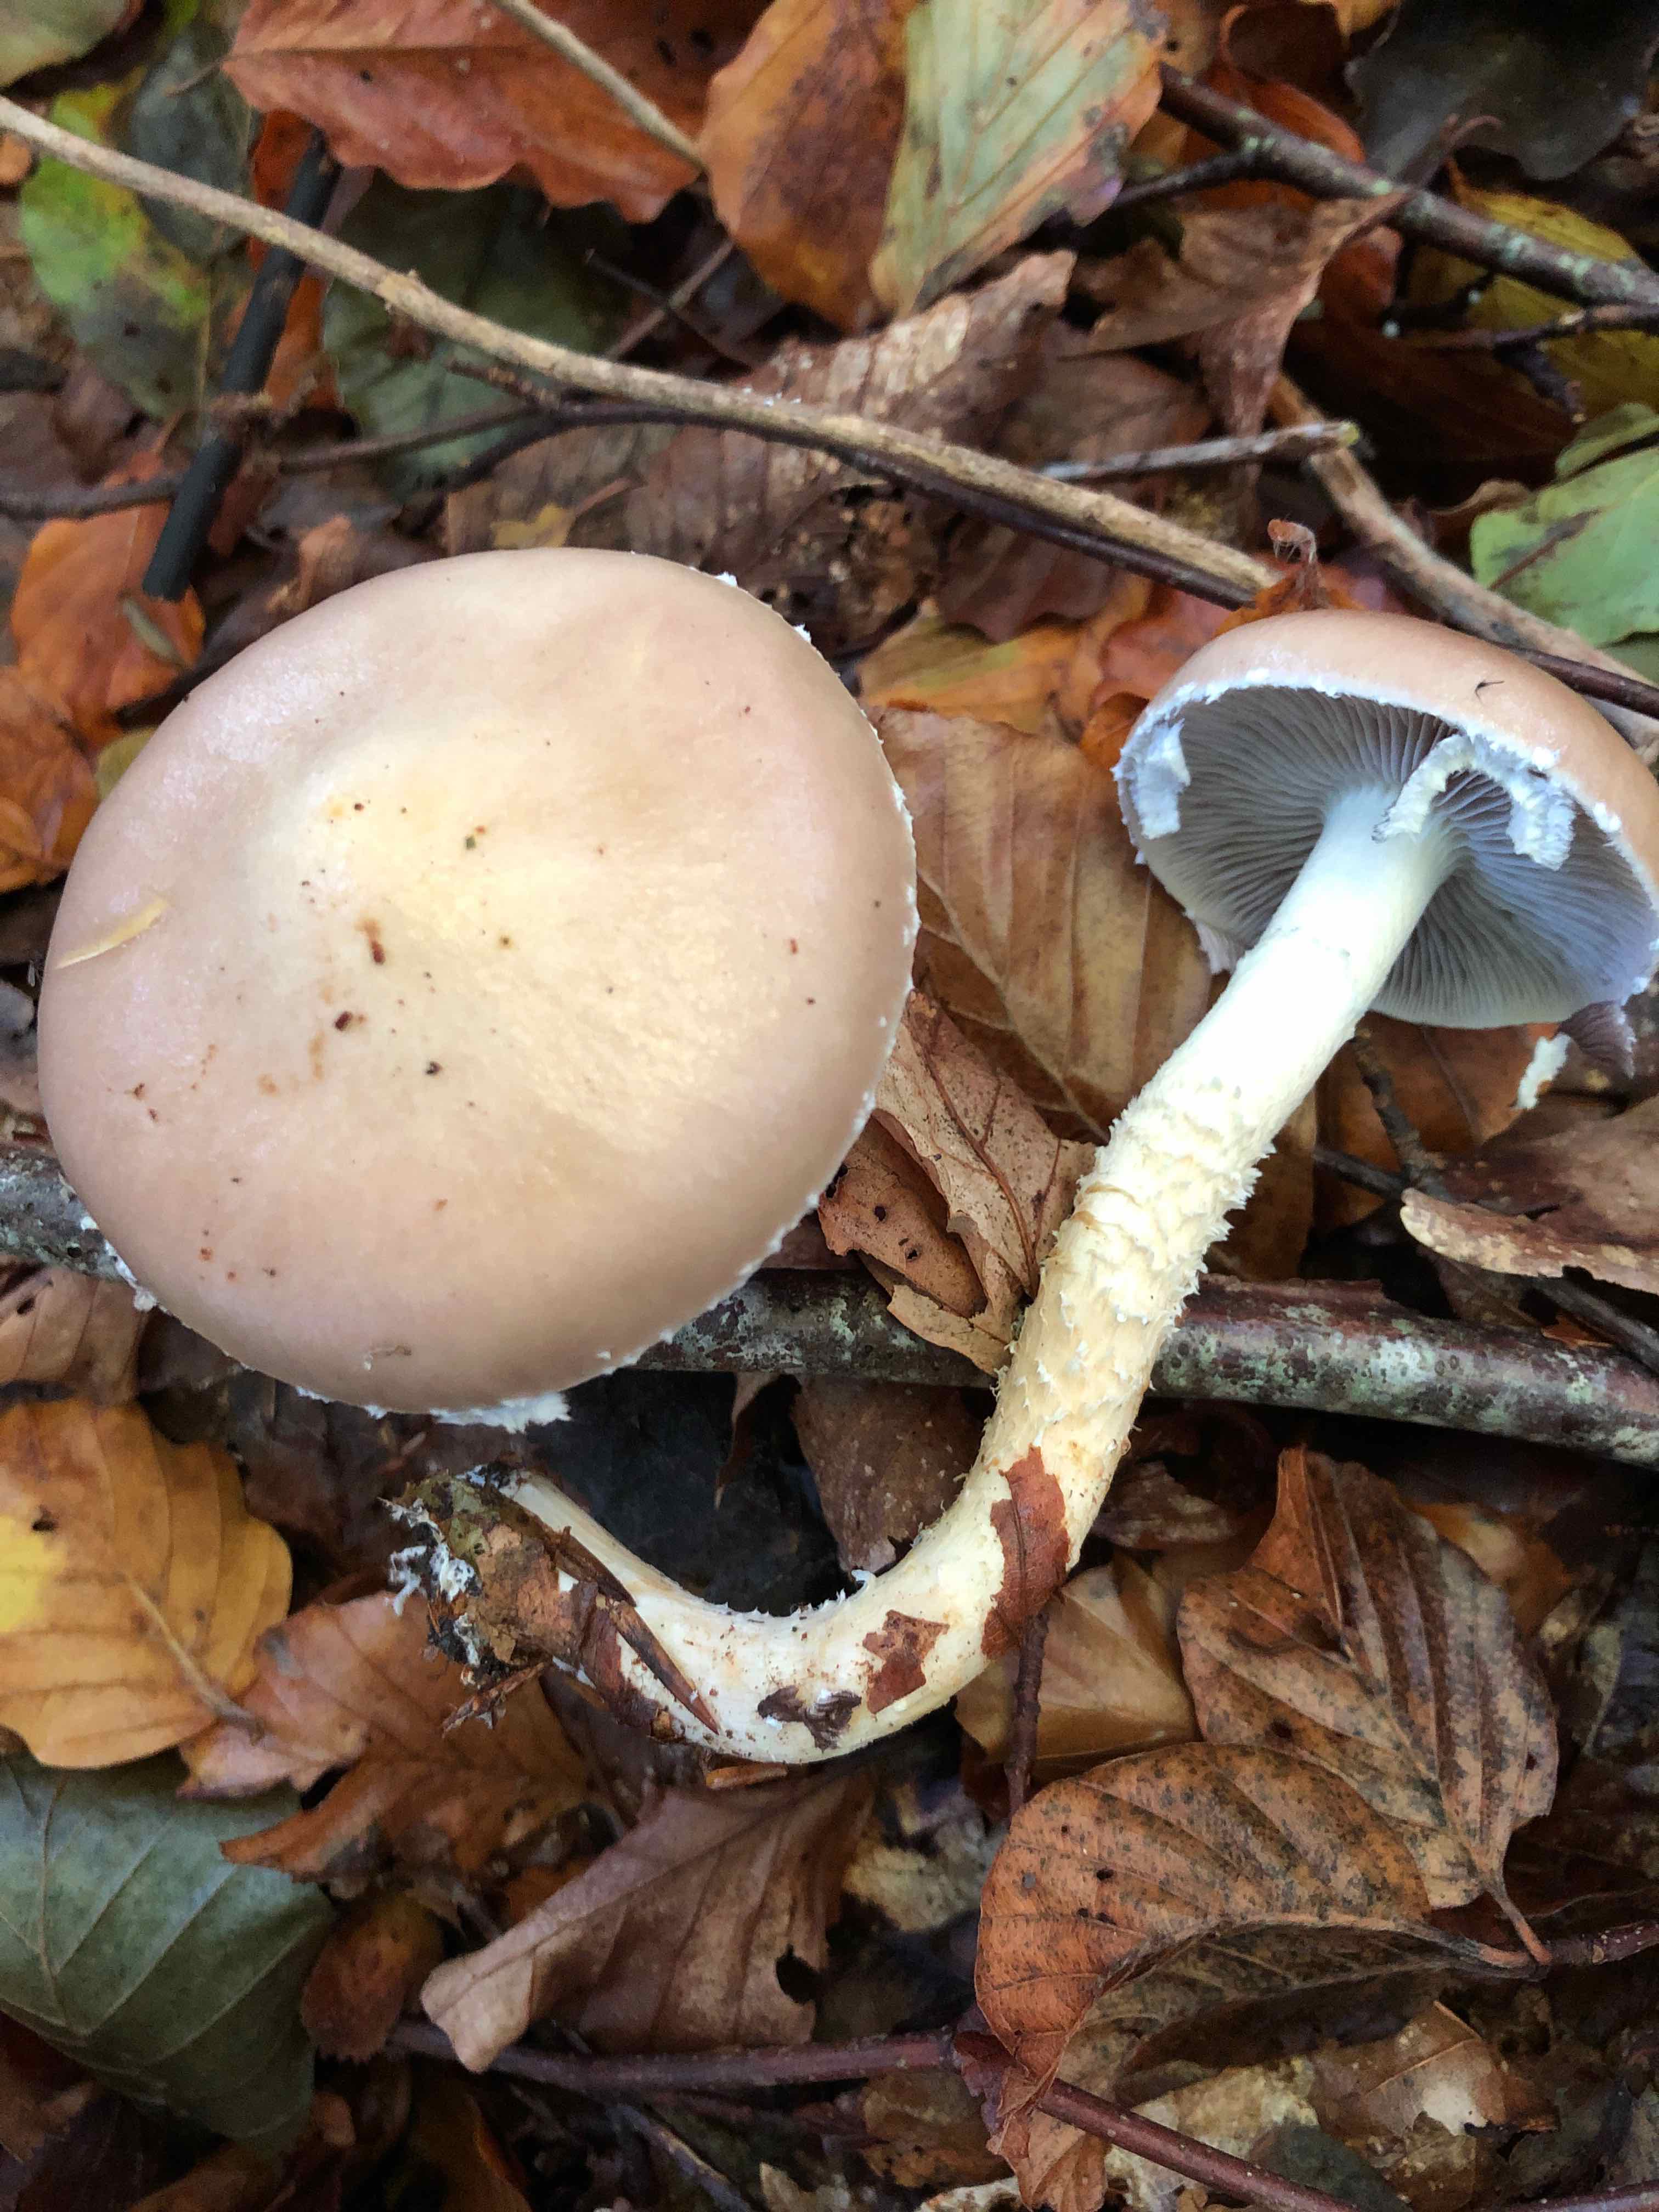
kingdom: Fungi
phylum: Basidiomycota
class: Agaricomycetes
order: Agaricales
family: Strophariaceae
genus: Stropharia
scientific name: Stropharia hornemannii
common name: nordisk bredblad
